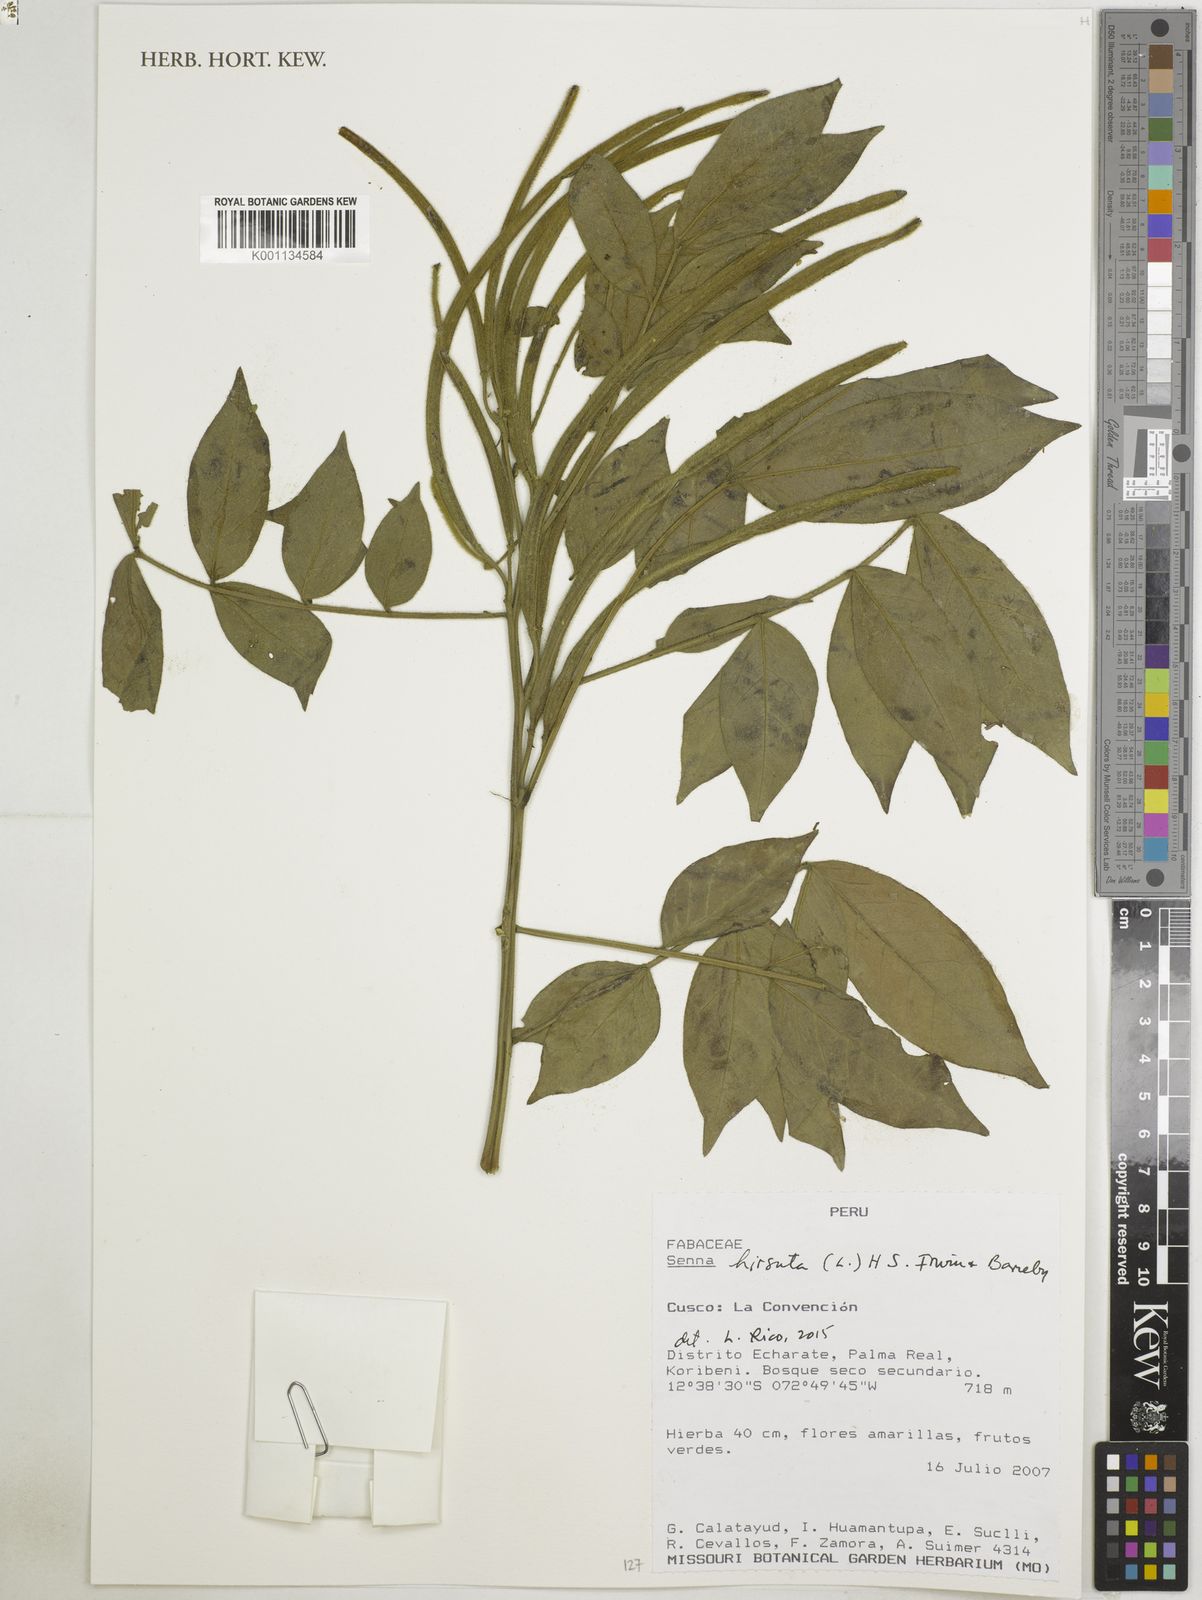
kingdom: Plantae
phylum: Tracheophyta
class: Magnoliopsida
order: Fabales
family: Fabaceae
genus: Senna
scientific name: Senna hirsuta
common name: Woolly senna
